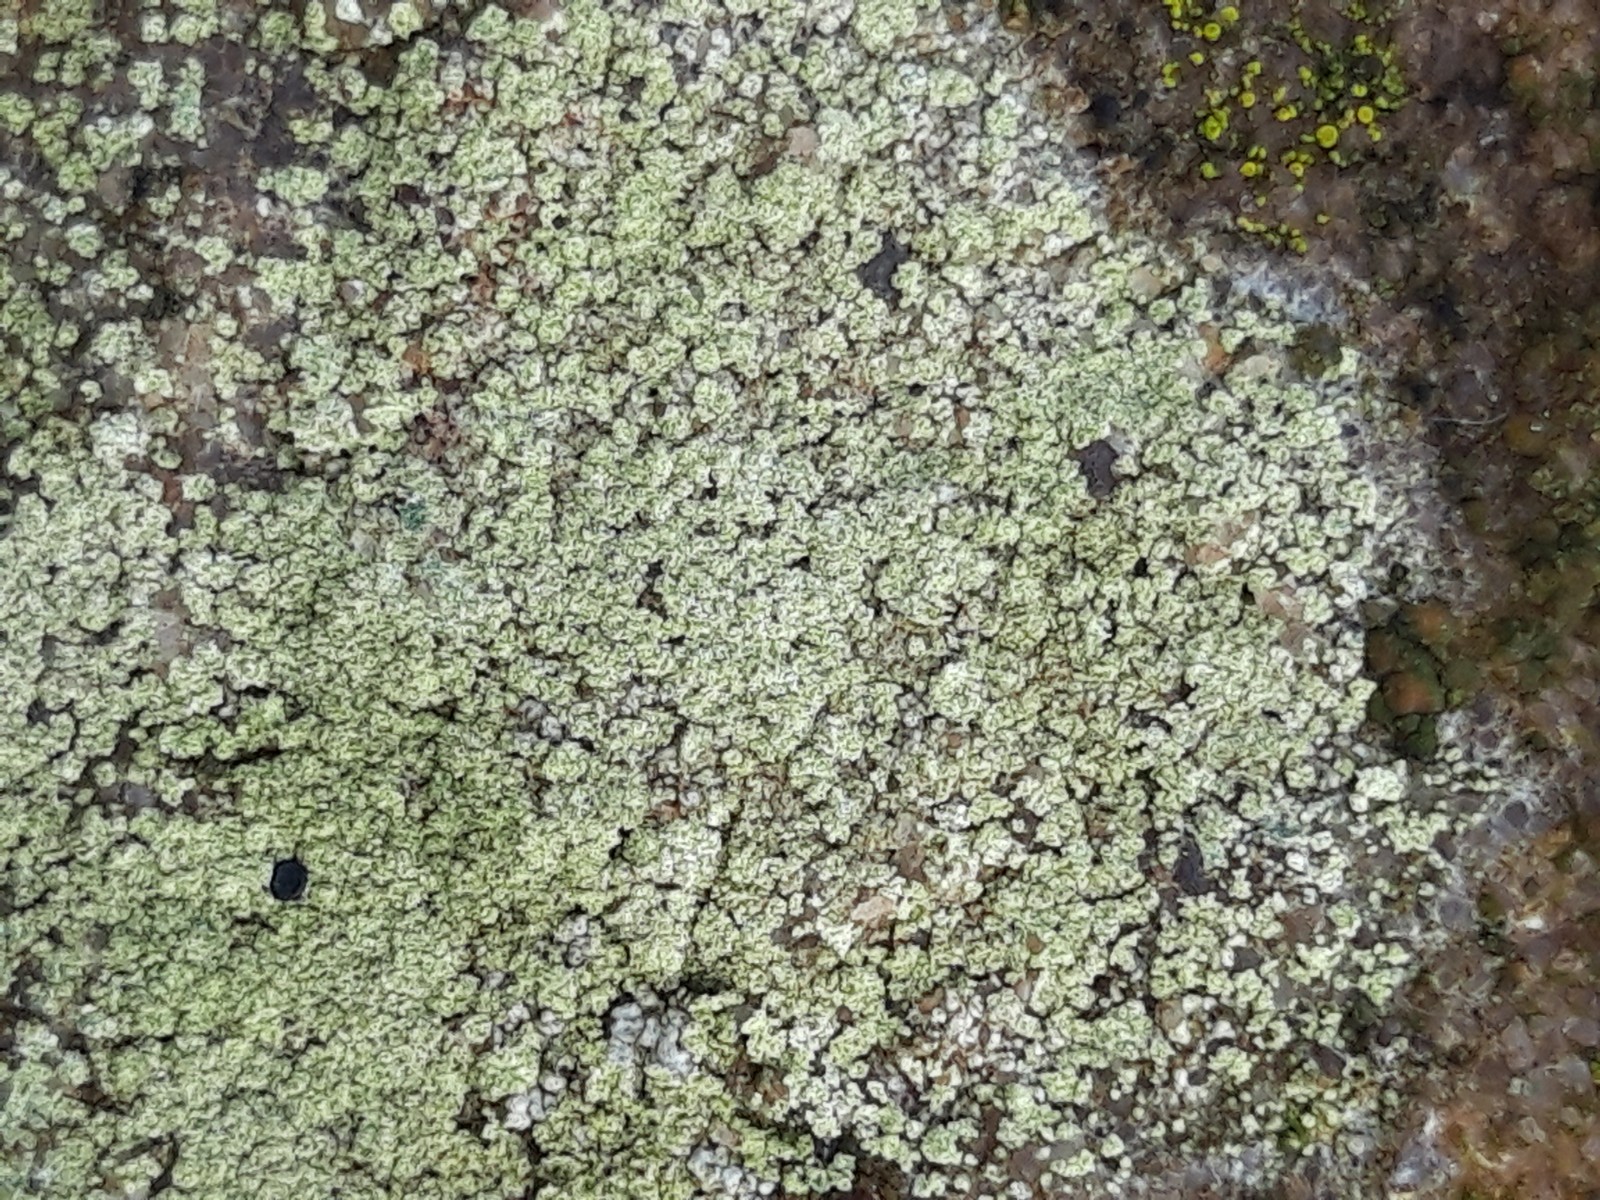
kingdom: Fungi
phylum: Ascomycota
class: Lecanoromycetes
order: Lecanorales
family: Lecanoraceae
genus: Lecidella
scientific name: Lecidella scabra
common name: skurvet skivelav
